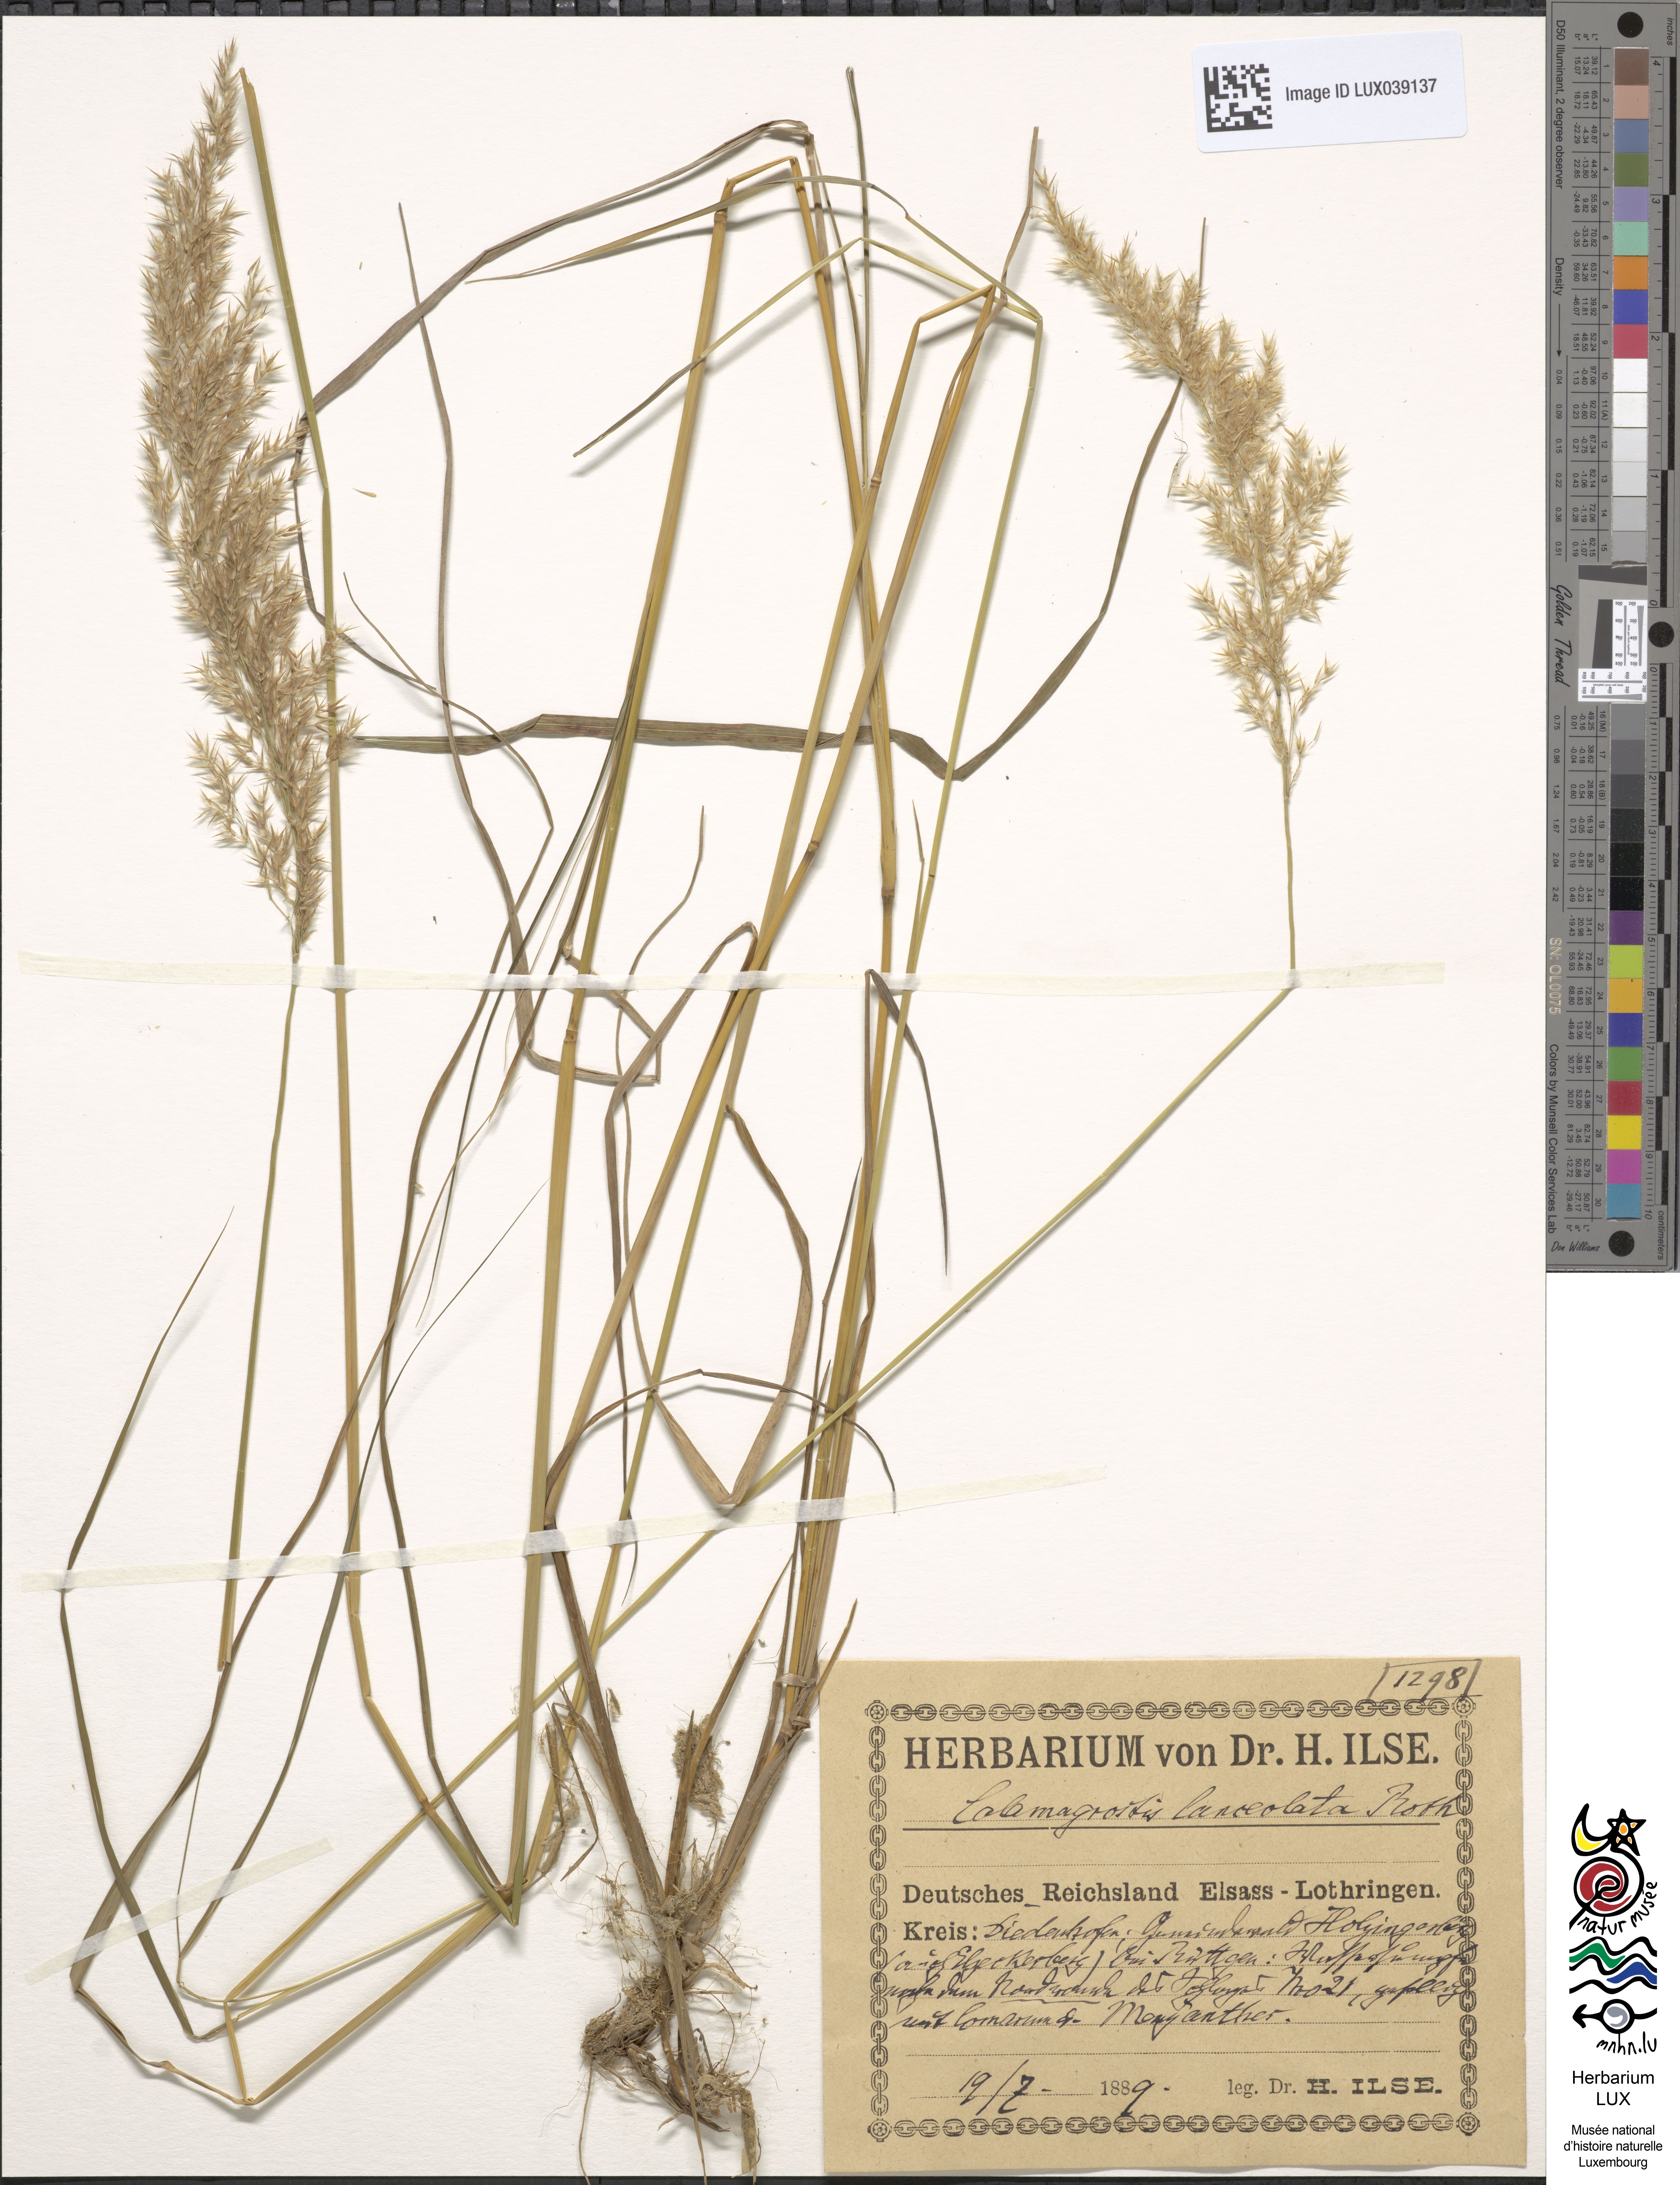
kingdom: Plantae
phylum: Tracheophyta
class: Liliopsida
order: Poales
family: Poaceae
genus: Calamagrostis
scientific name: Calamagrostis canescens
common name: Purple small-reed
